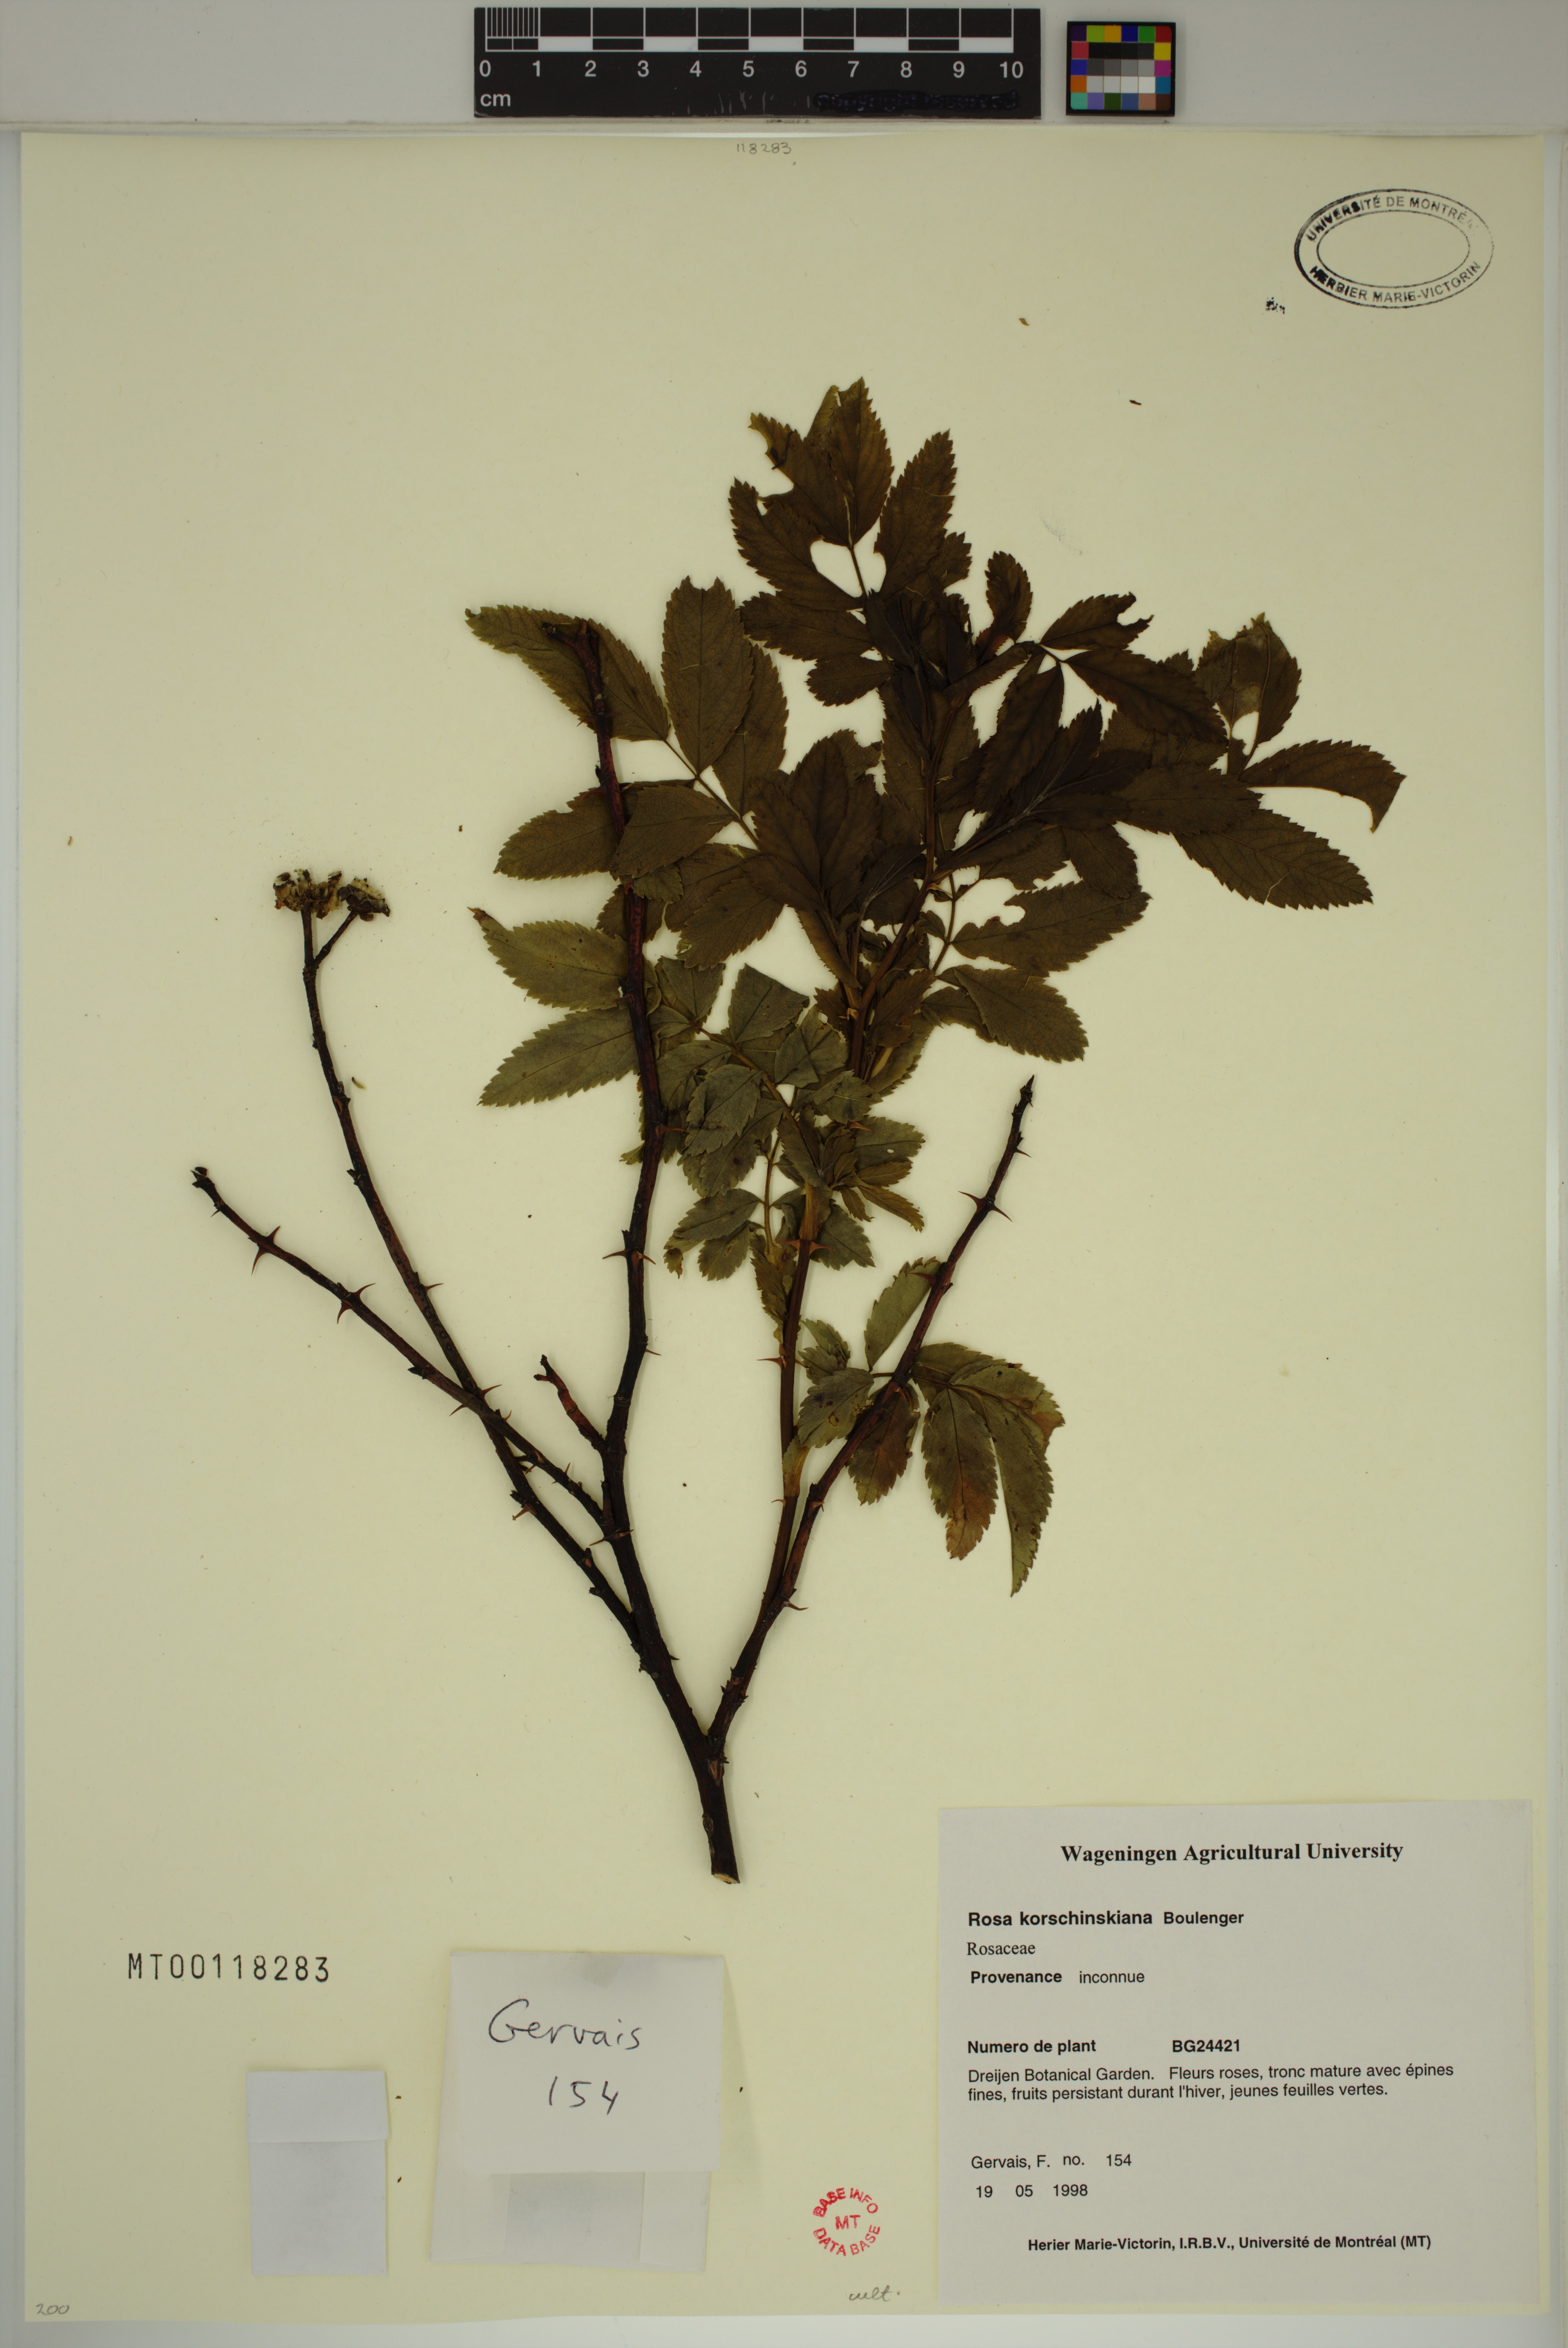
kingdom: Plantae
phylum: Tracheophyta
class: Magnoliopsida
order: Rosales
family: Rosaceae
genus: Rosa
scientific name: Rosa korshinskiana
